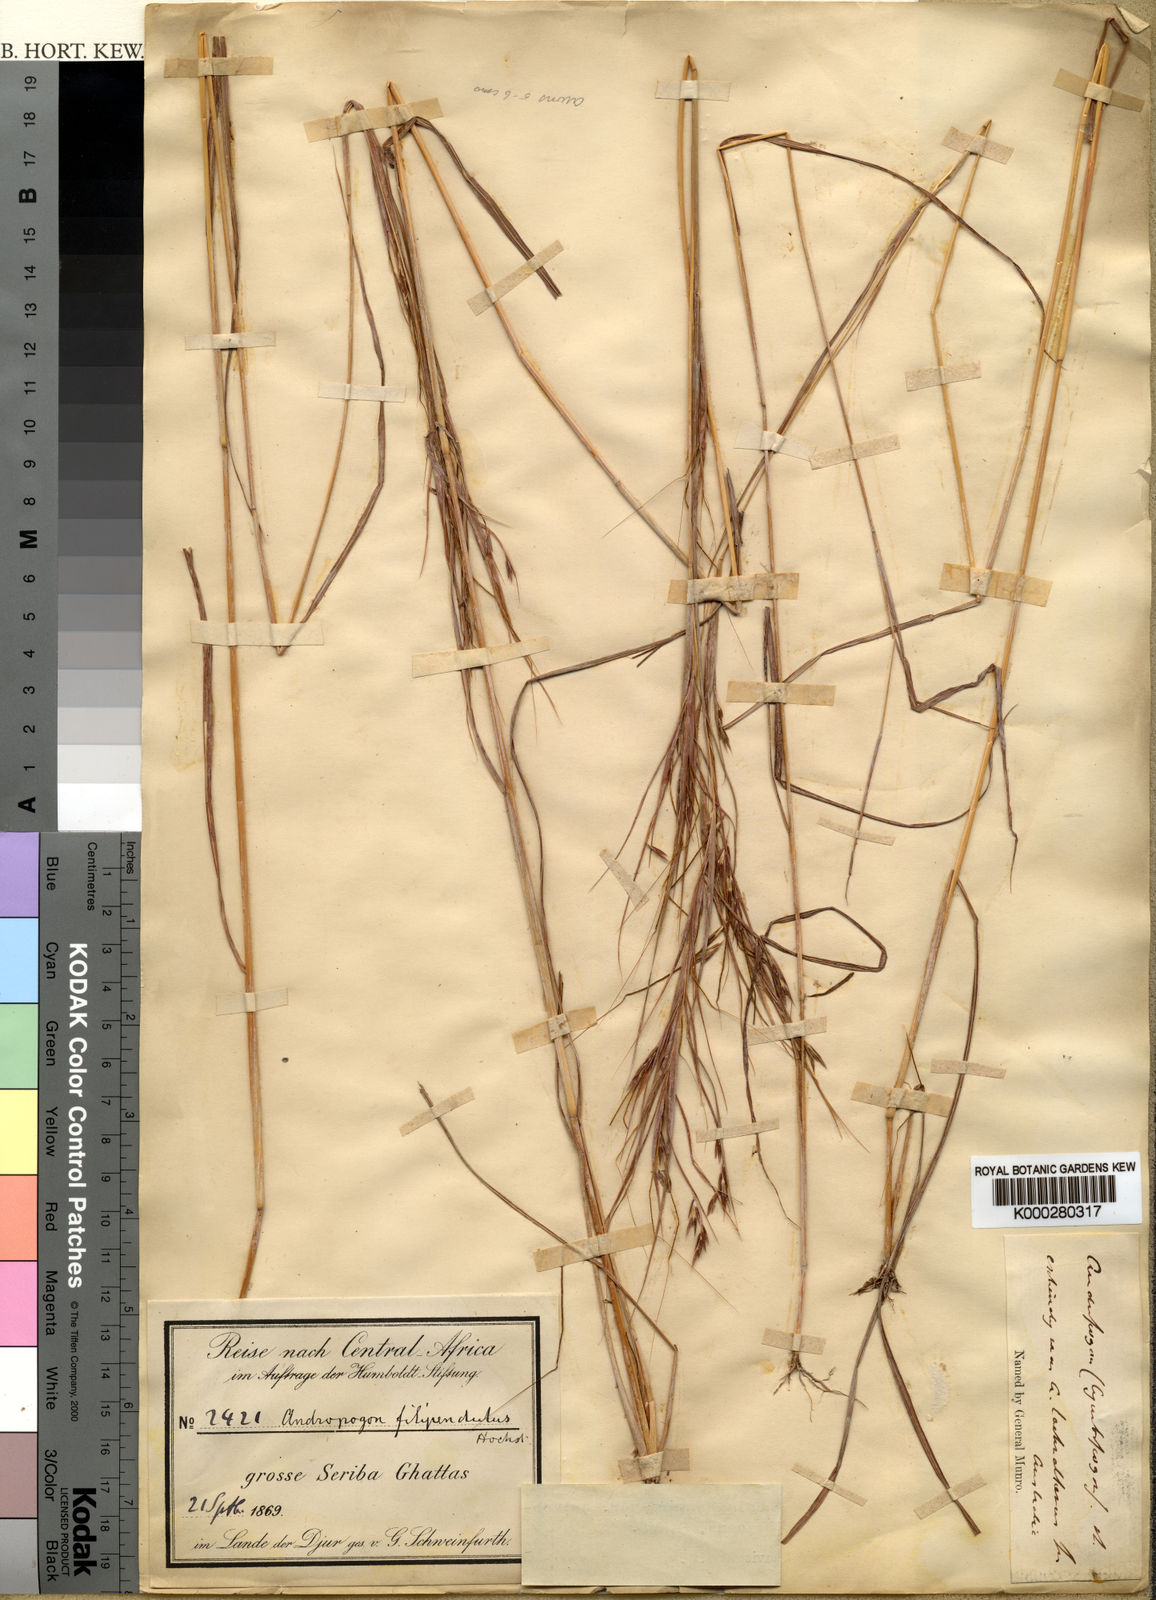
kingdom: Plantae
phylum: Tracheophyta
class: Liliopsida
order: Poales
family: Poaceae
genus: Hyparrhenia
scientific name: Hyparrhenia figariana
